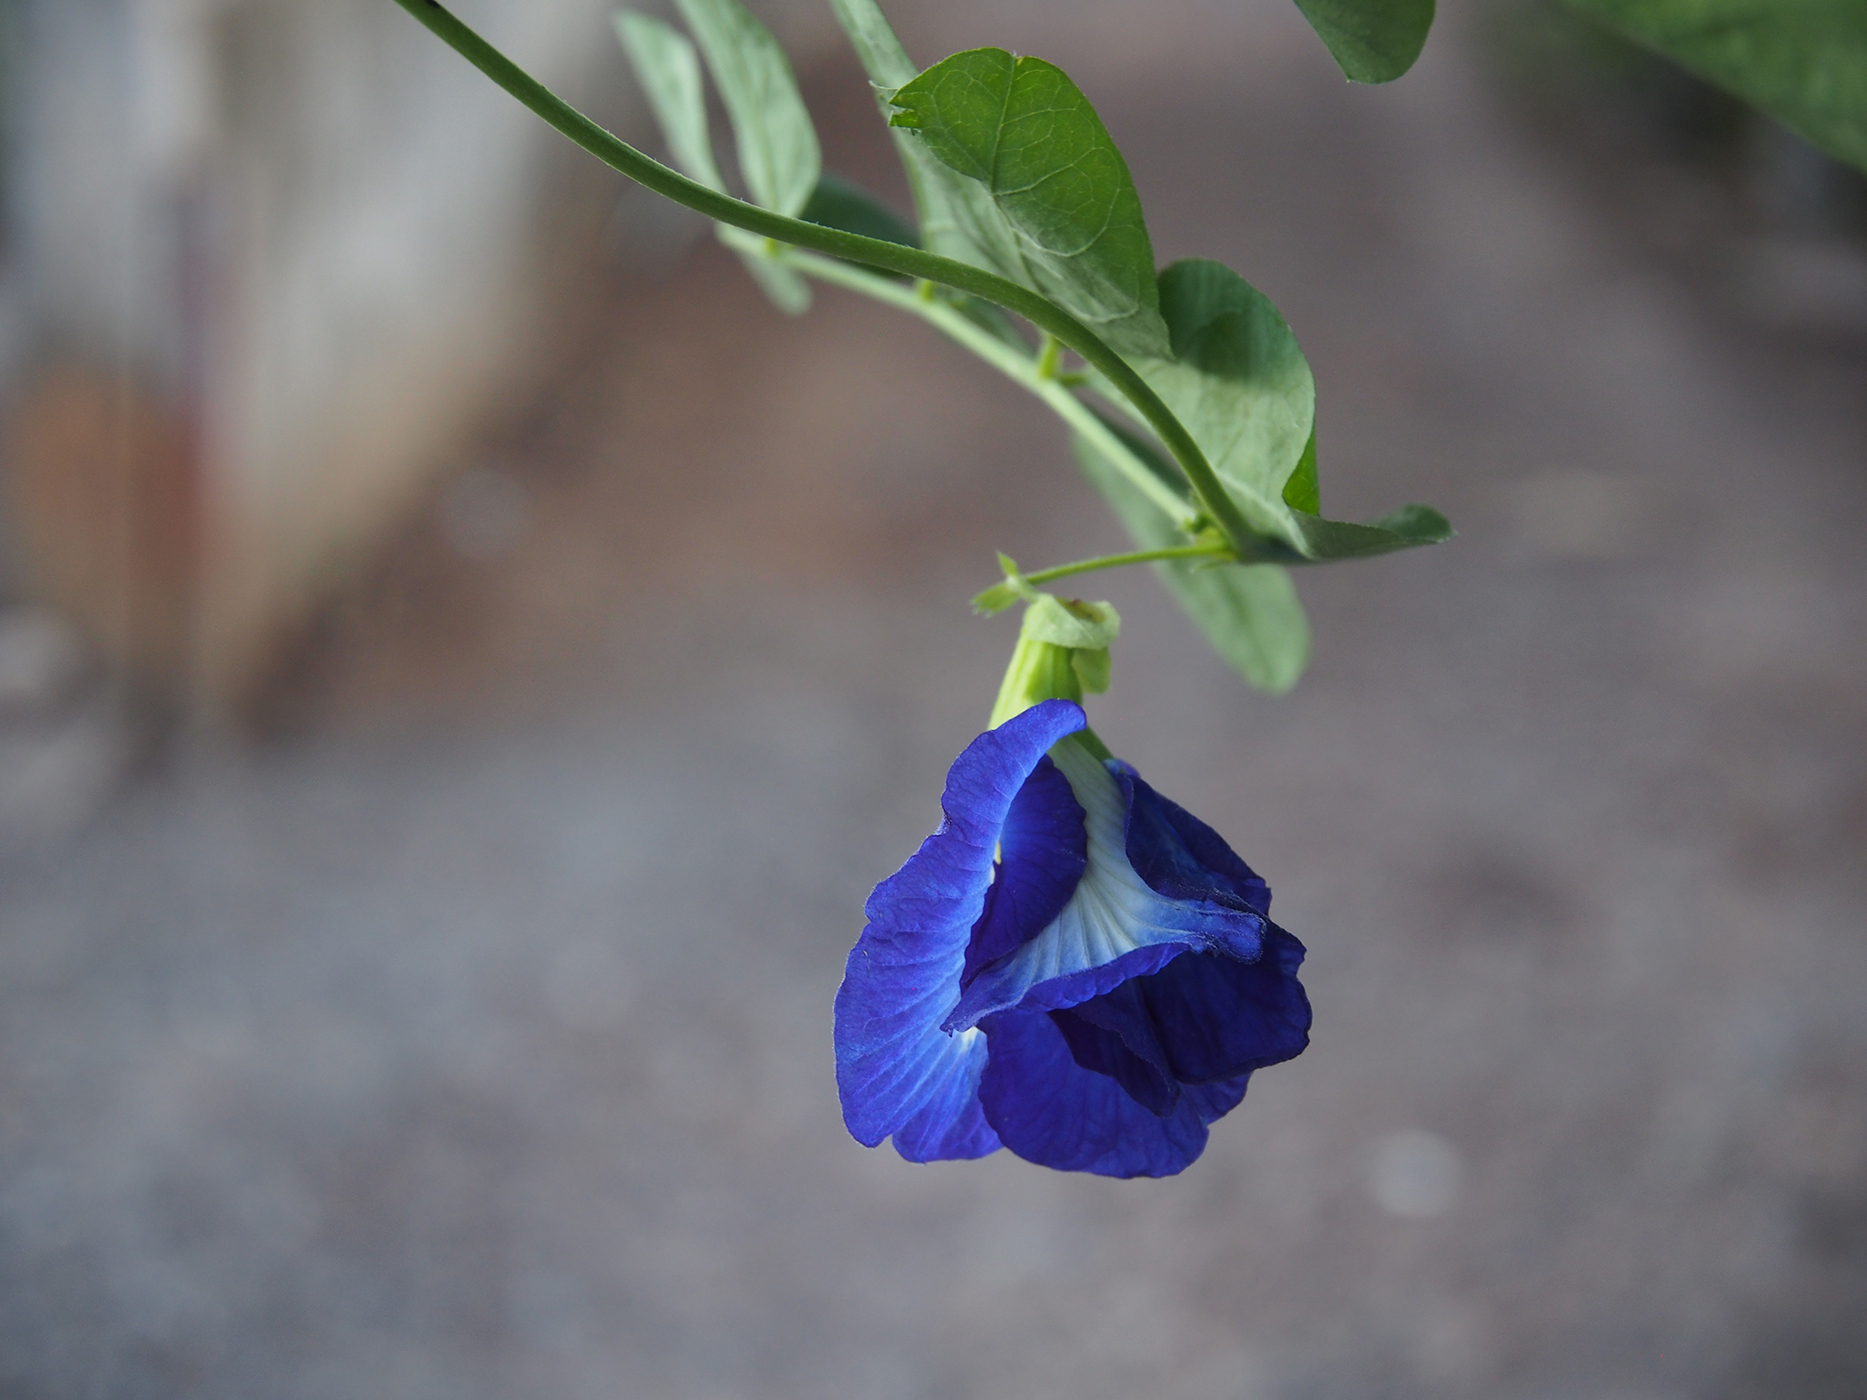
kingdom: Plantae
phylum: Tracheophyta
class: Magnoliopsida
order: Fabales
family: Fabaceae
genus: Clitoria
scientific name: Clitoria ternatea
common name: Asian pigeonwings
